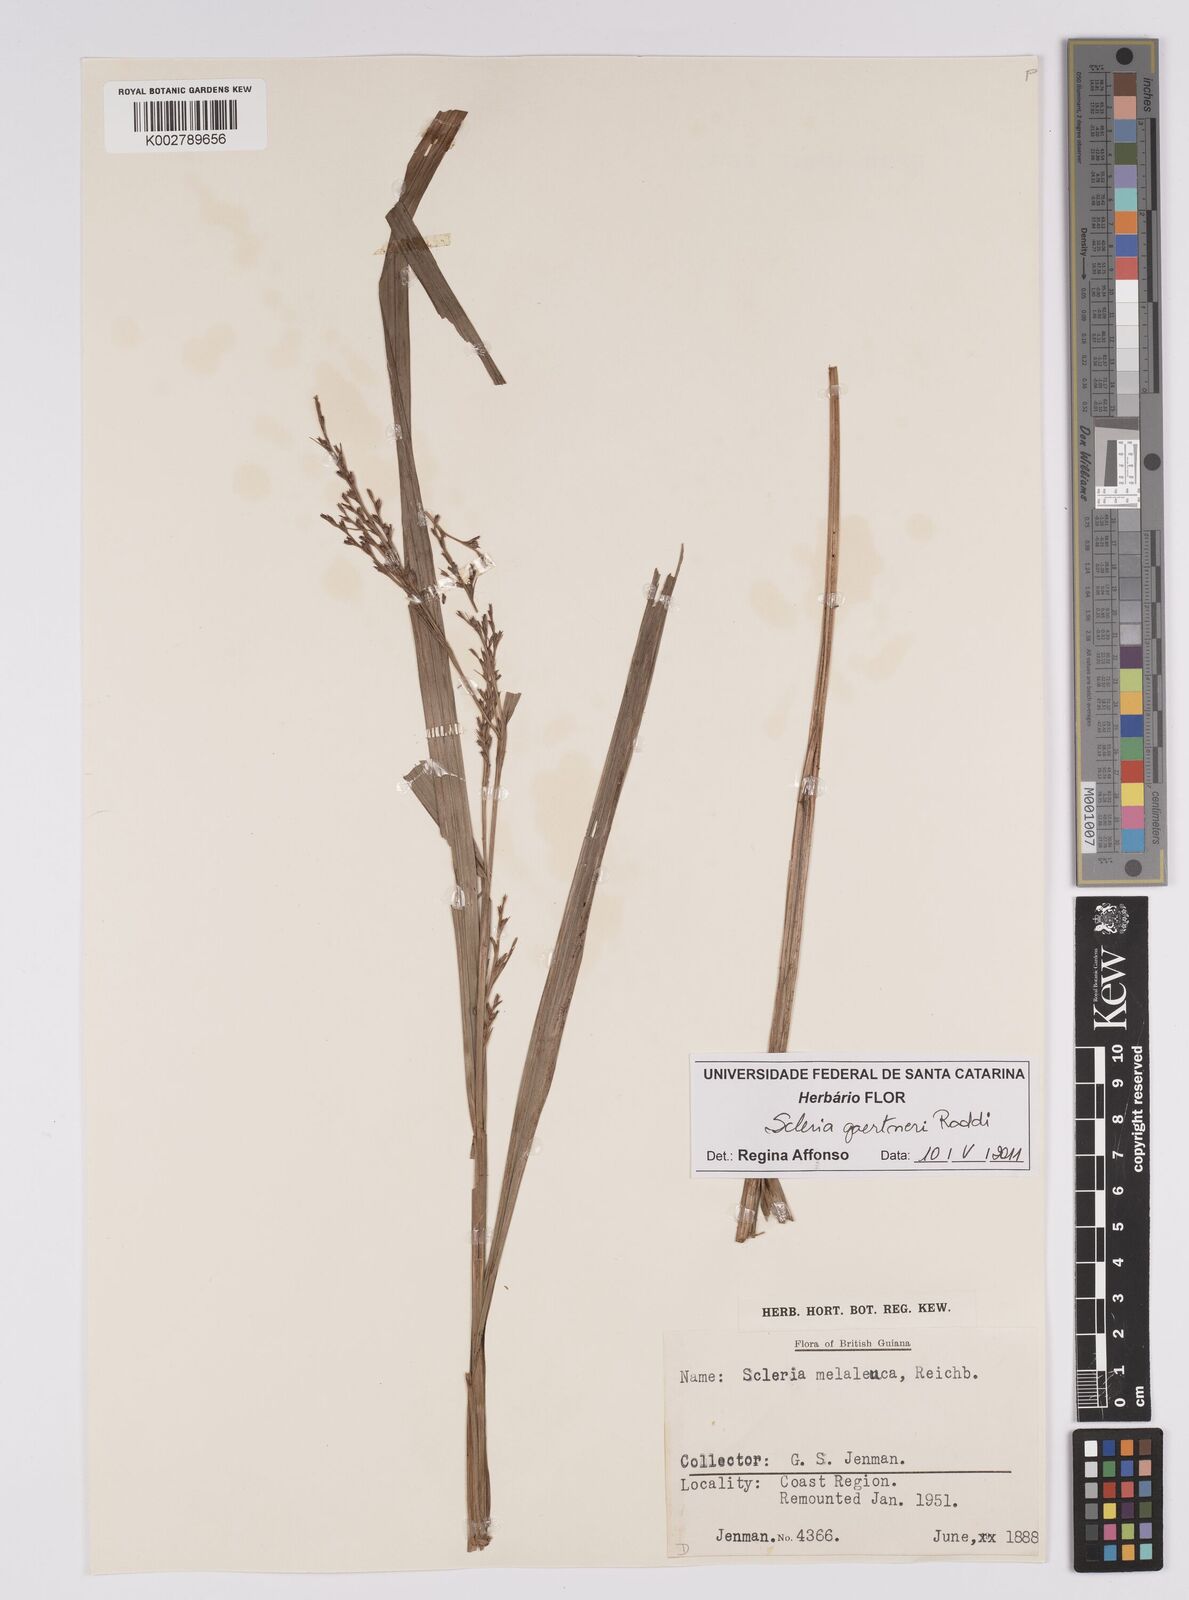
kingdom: Plantae
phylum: Tracheophyta
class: Liliopsida
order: Poales
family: Cyperaceae
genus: Scleria
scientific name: Scleria gaertneri
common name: Cortadera blanca
